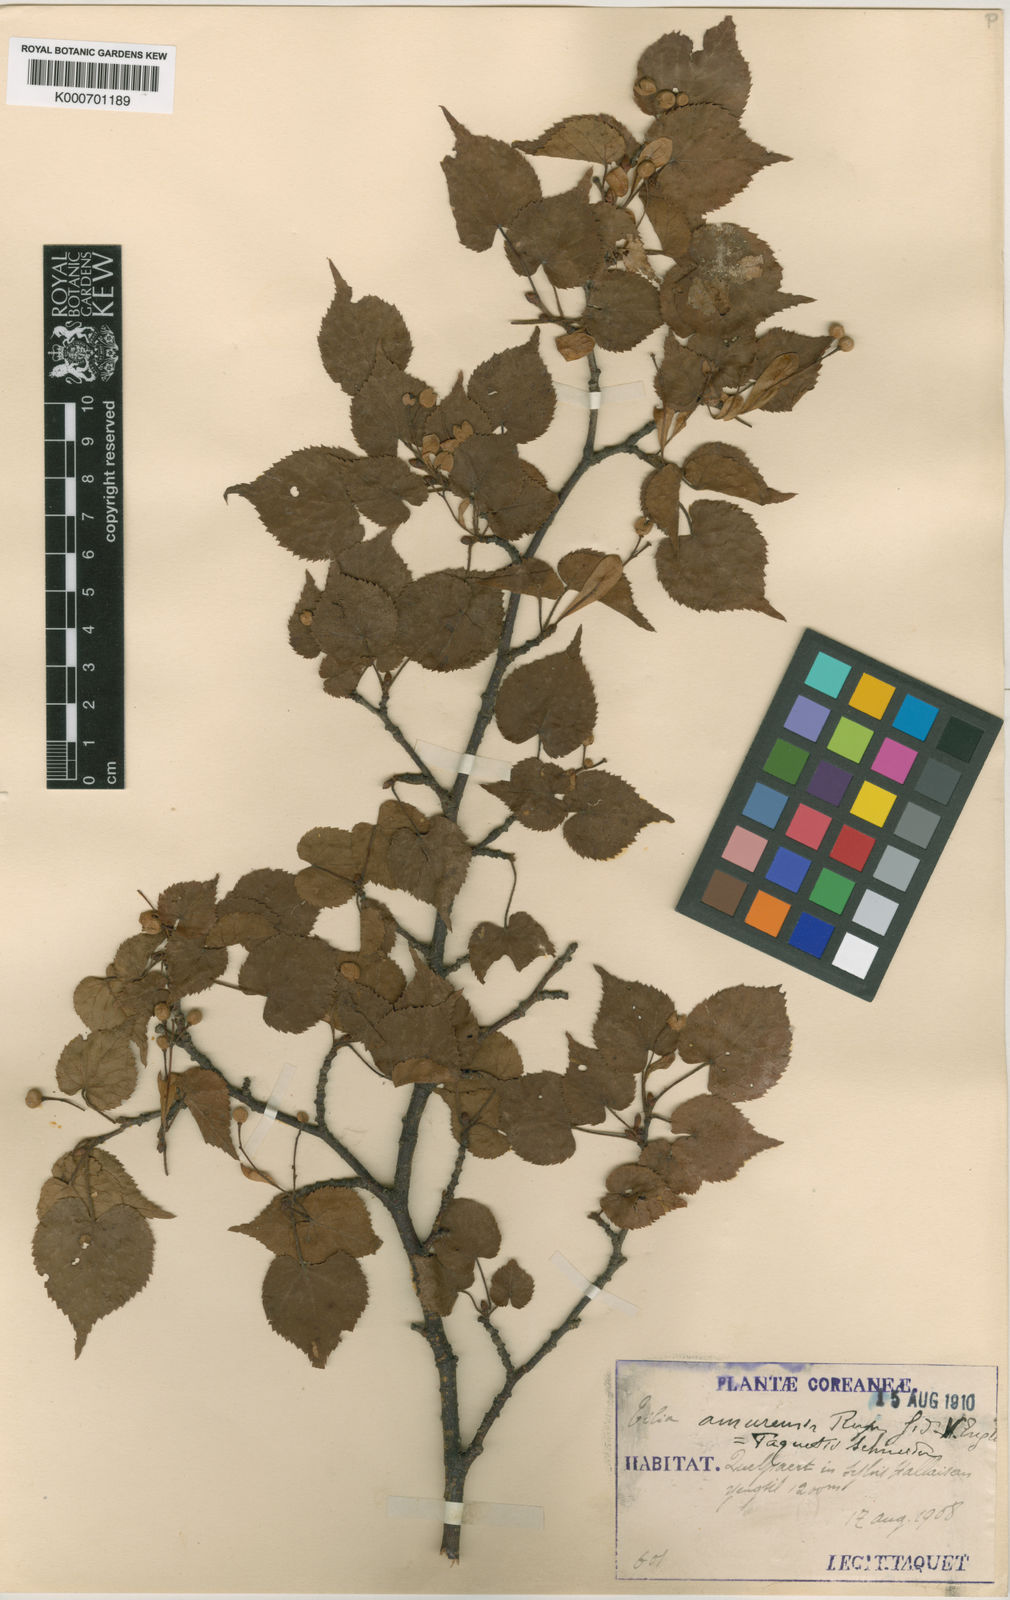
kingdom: Plantae
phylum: Tracheophyta
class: Magnoliopsida
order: Malvales
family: Malvaceae
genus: Tilia
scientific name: Tilia amurensis
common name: Amur lime
